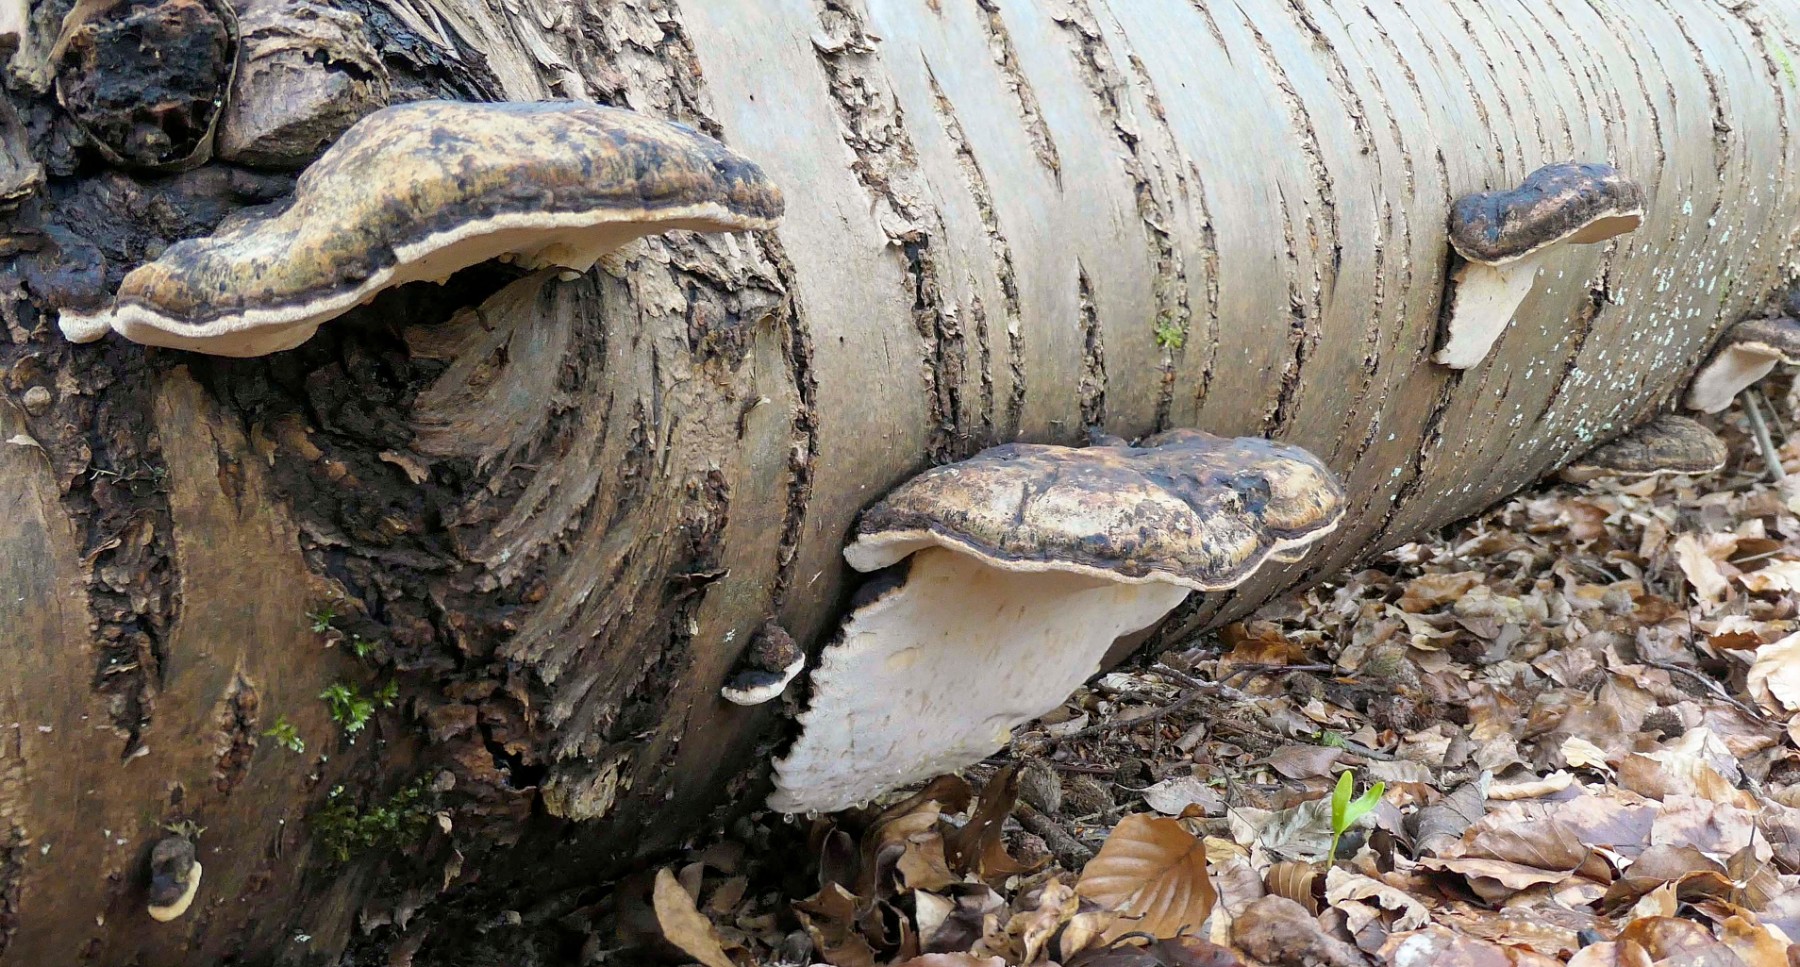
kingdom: Fungi
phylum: Basidiomycota
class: Agaricomycetes
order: Polyporales
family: Ischnodermataceae
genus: Ischnoderma
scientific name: Ischnoderma resinosum
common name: løv-tjæreporesvamp
